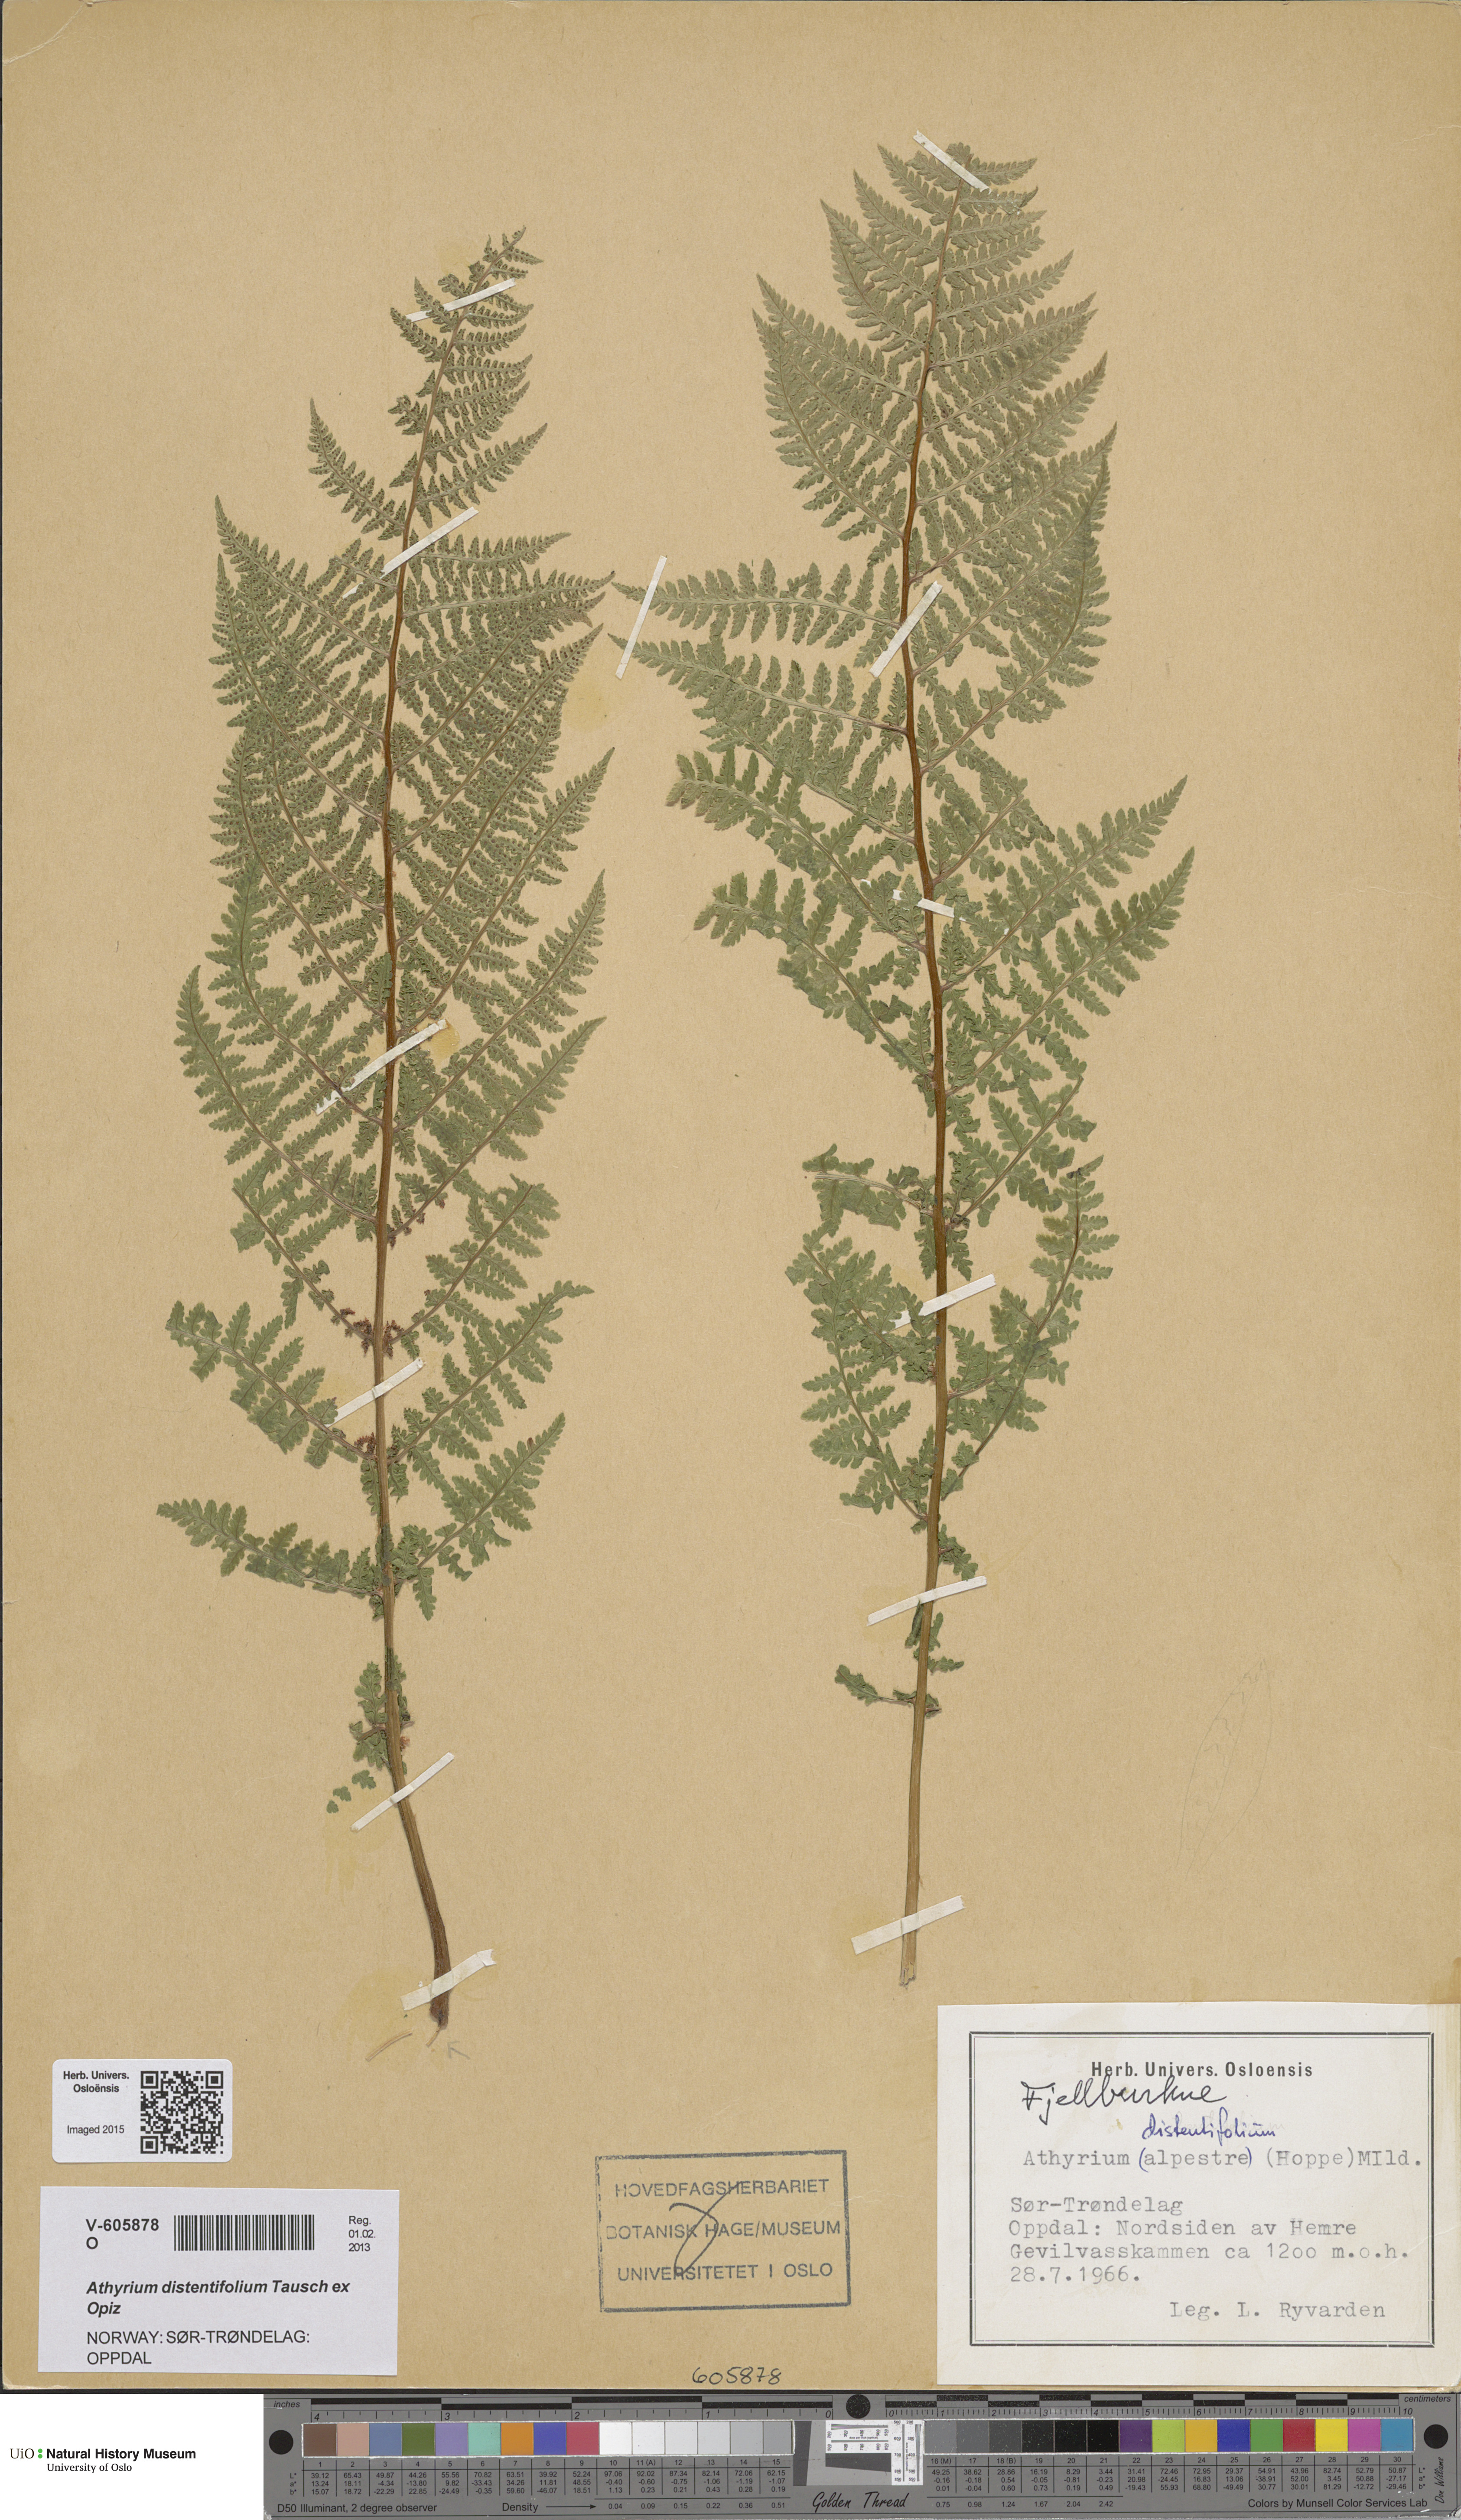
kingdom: Plantae
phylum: Tracheophyta
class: Polypodiopsida
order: Polypodiales
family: Athyriaceae
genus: Pseudathyrium
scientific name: Pseudathyrium alpestre
